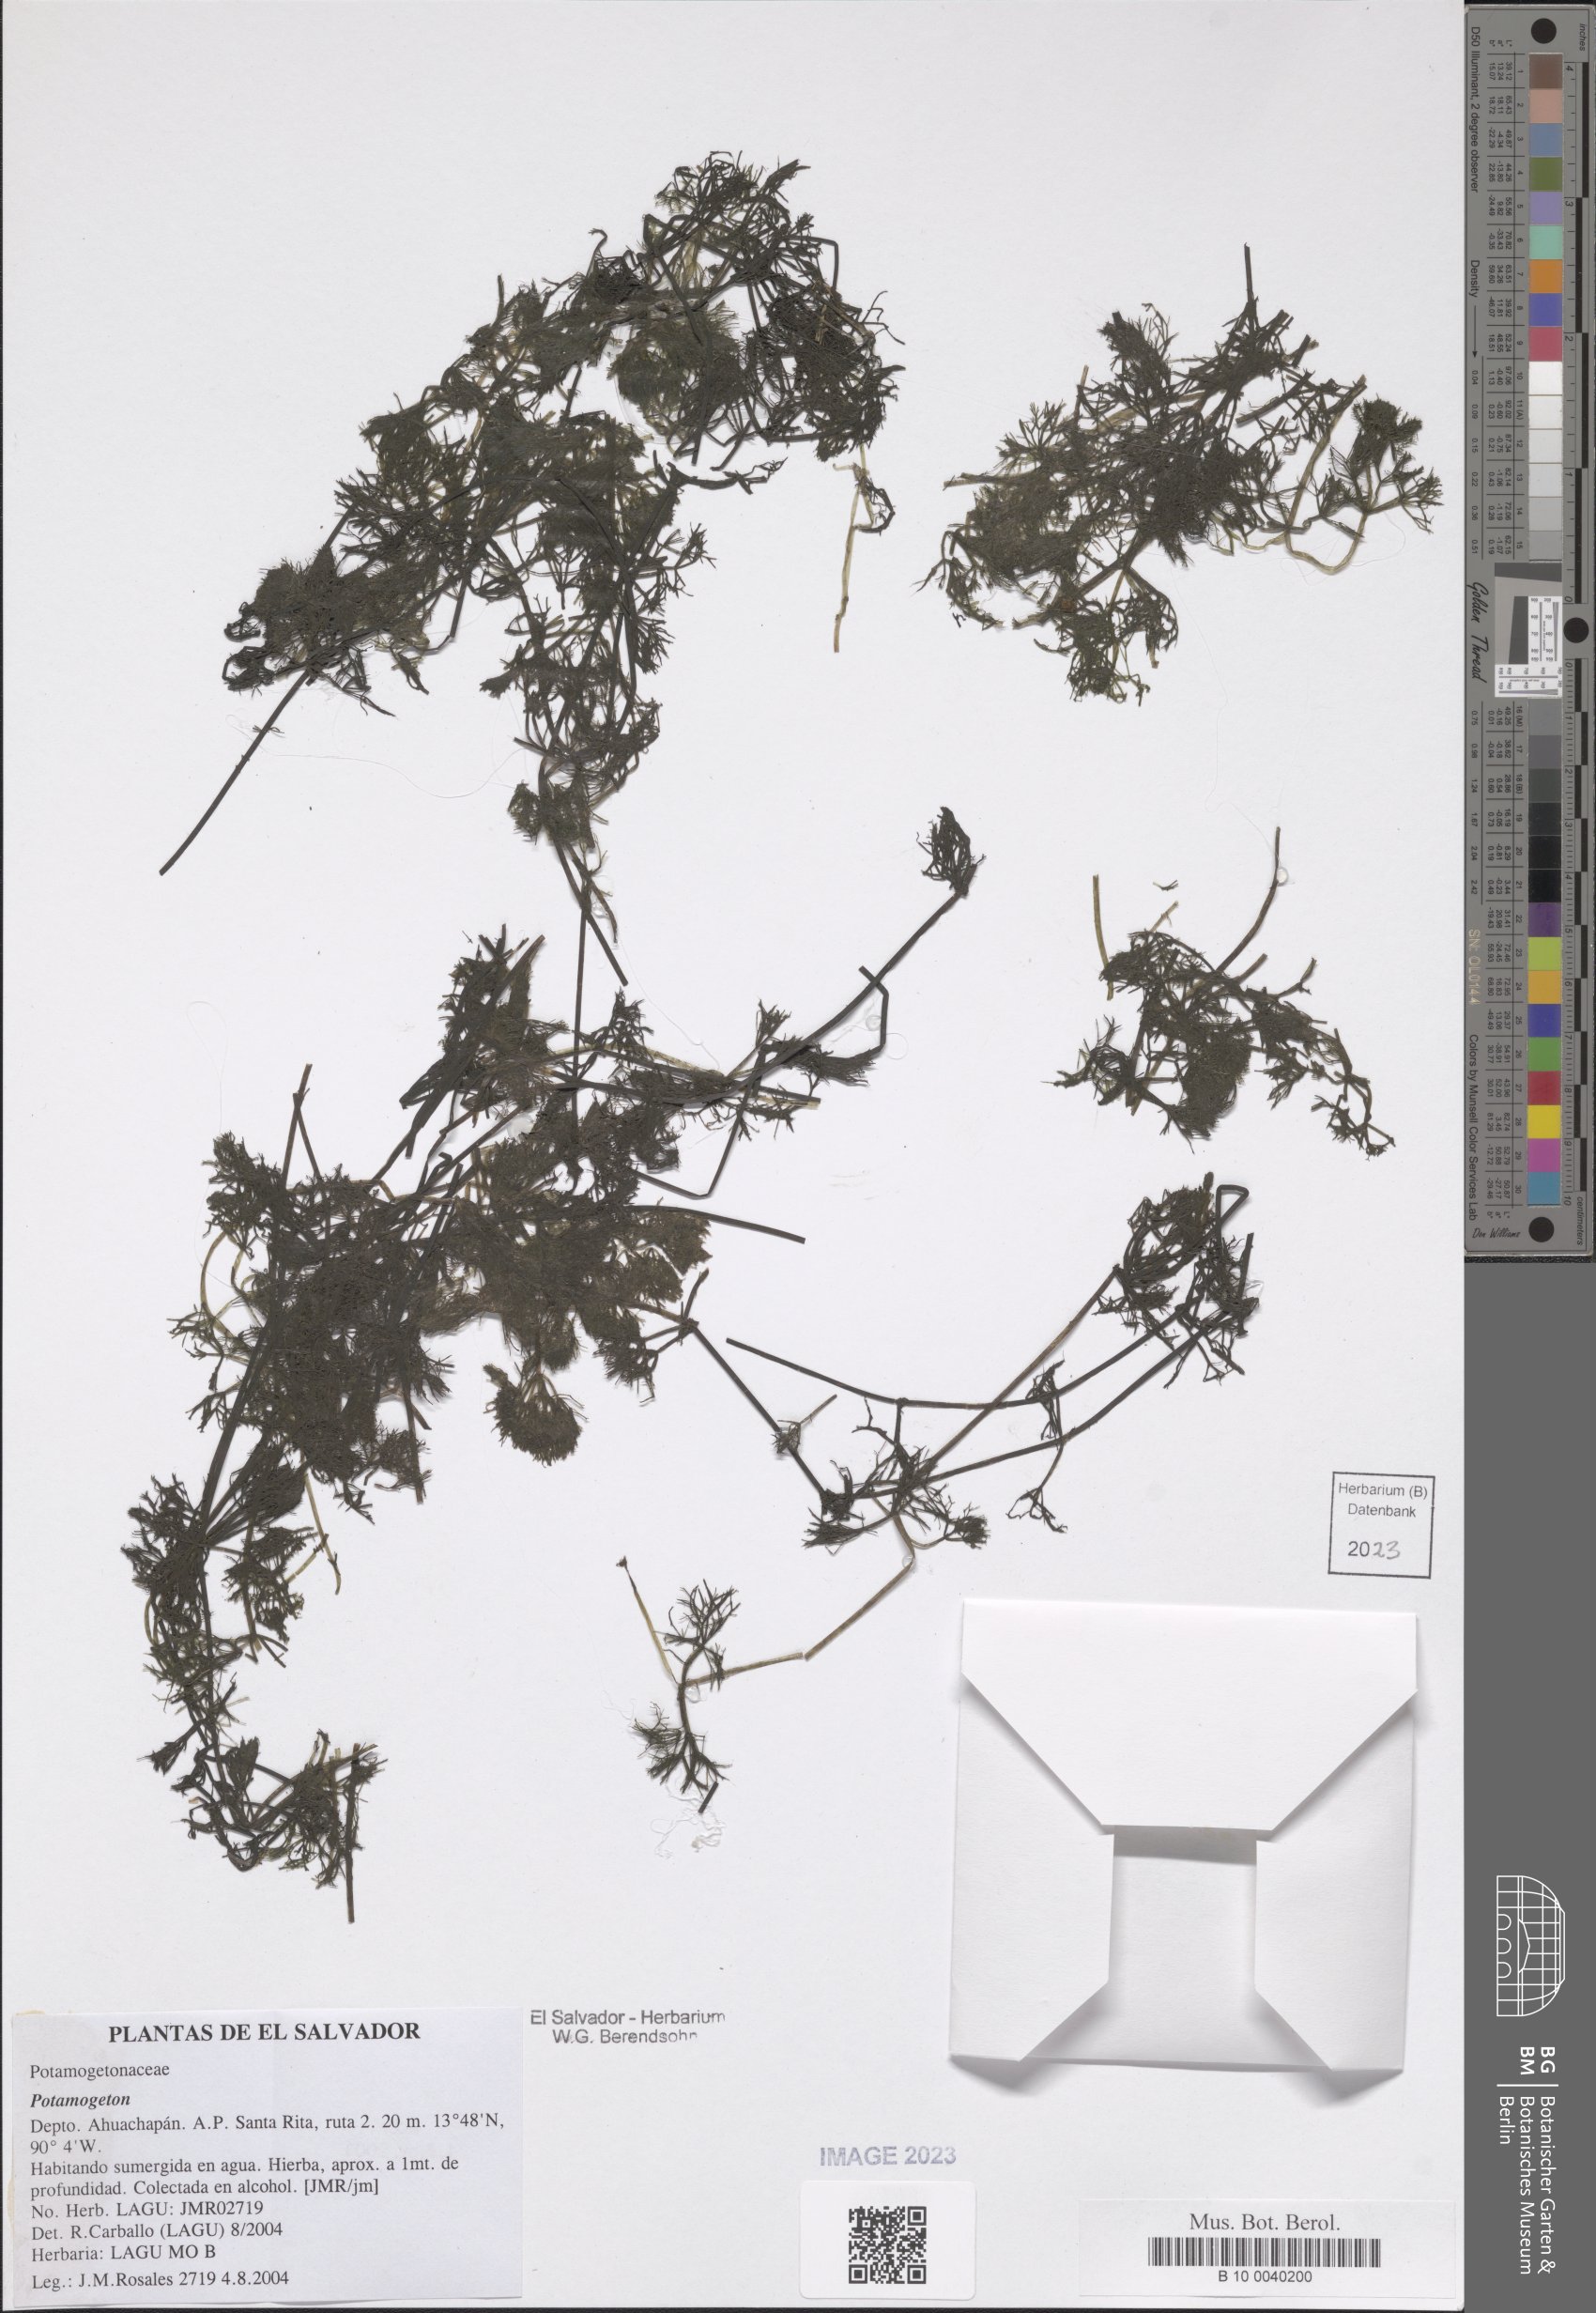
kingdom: Plantae
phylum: Tracheophyta
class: Liliopsida
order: Alismatales
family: Potamogetonaceae
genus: Potamogeton
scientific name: Potamogeton
